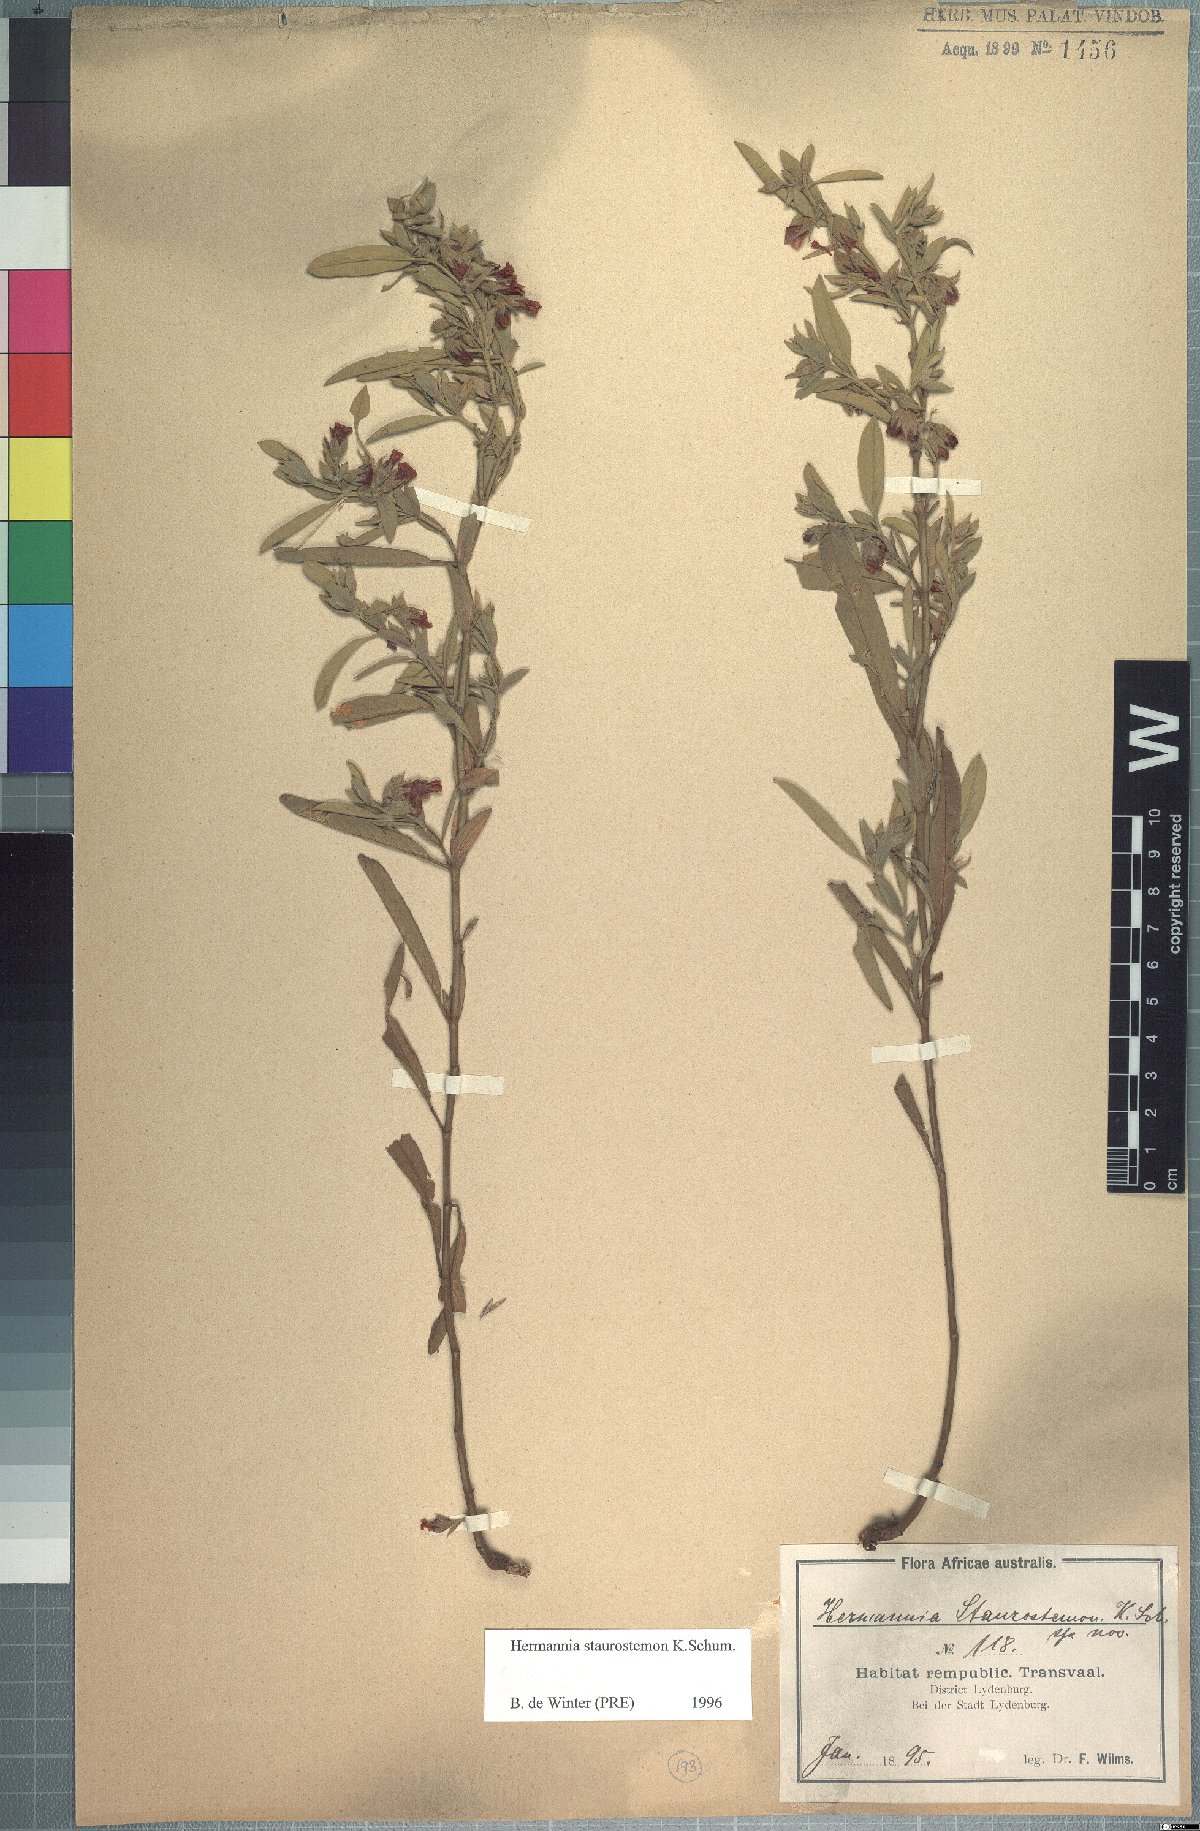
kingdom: Plantae
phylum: Tracheophyta
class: Magnoliopsida
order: Malvales
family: Malvaceae
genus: Hermannia
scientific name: Hermannia staurostemon
